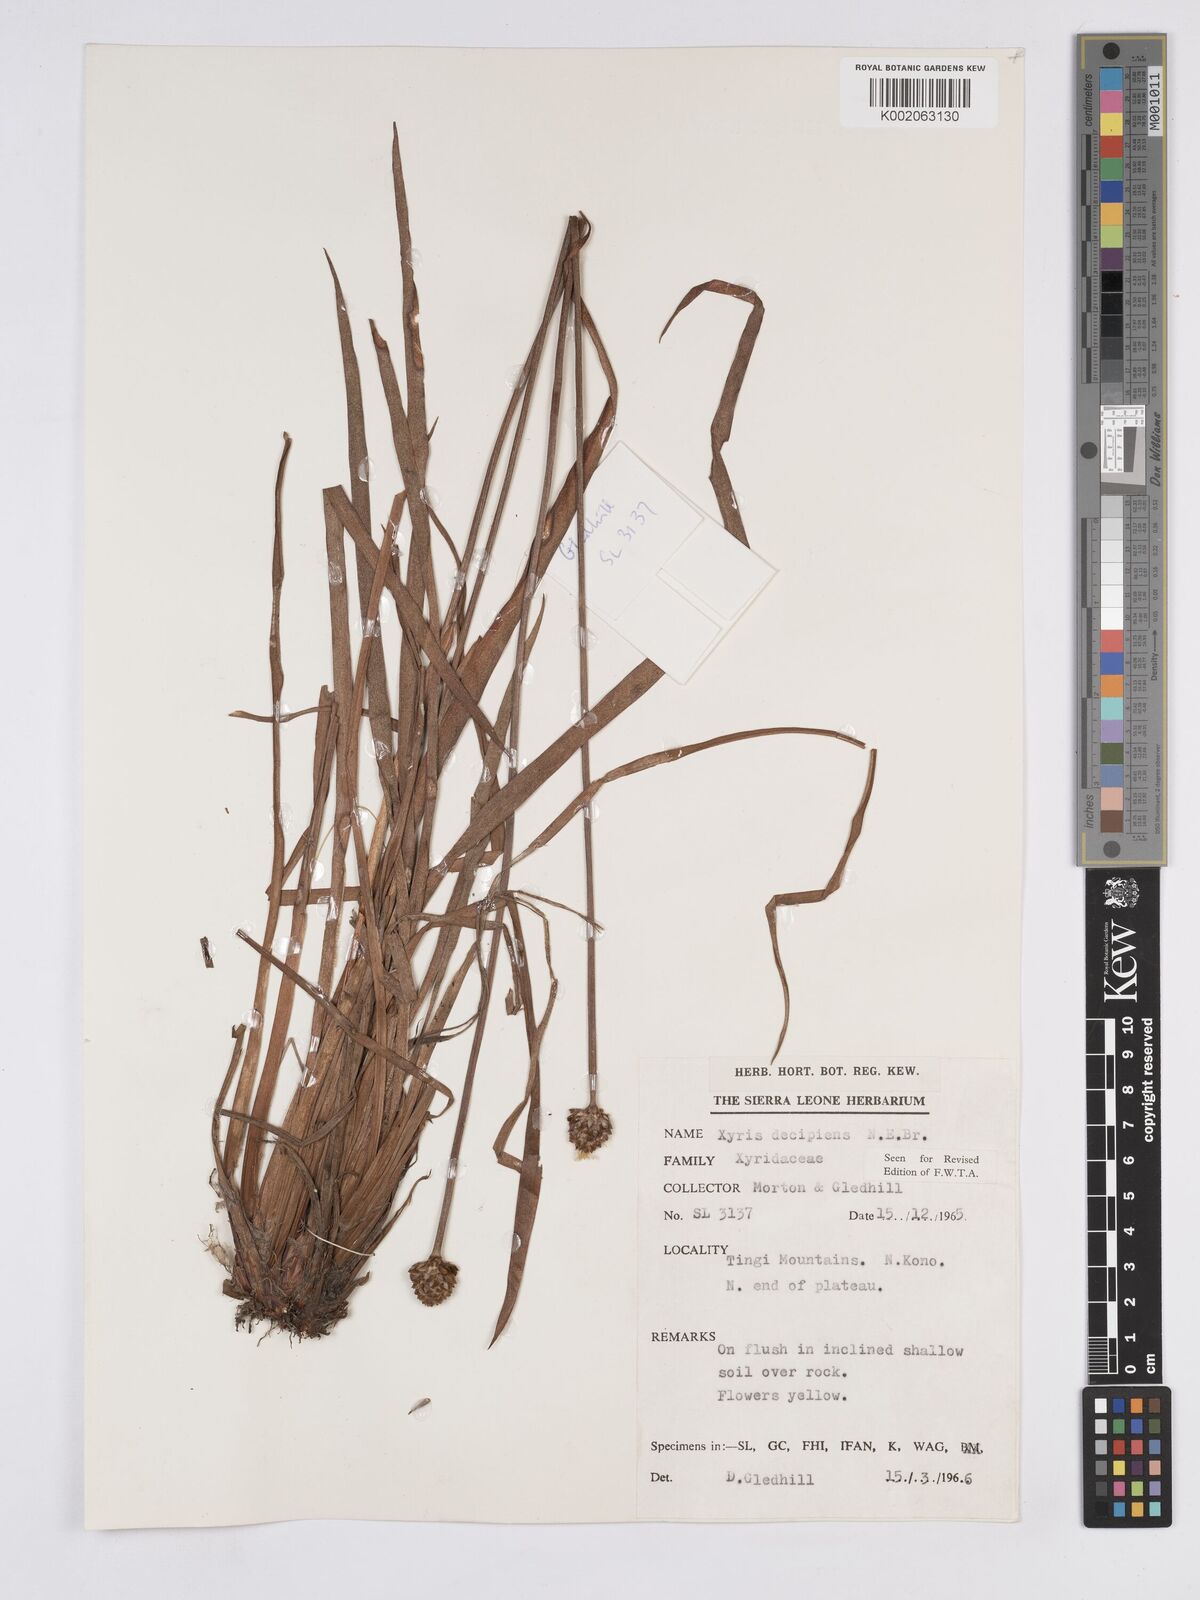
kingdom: Plantae
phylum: Tracheophyta
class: Liliopsida
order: Poales
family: Xyridaceae
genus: Xyris
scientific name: Xyris decipiens
